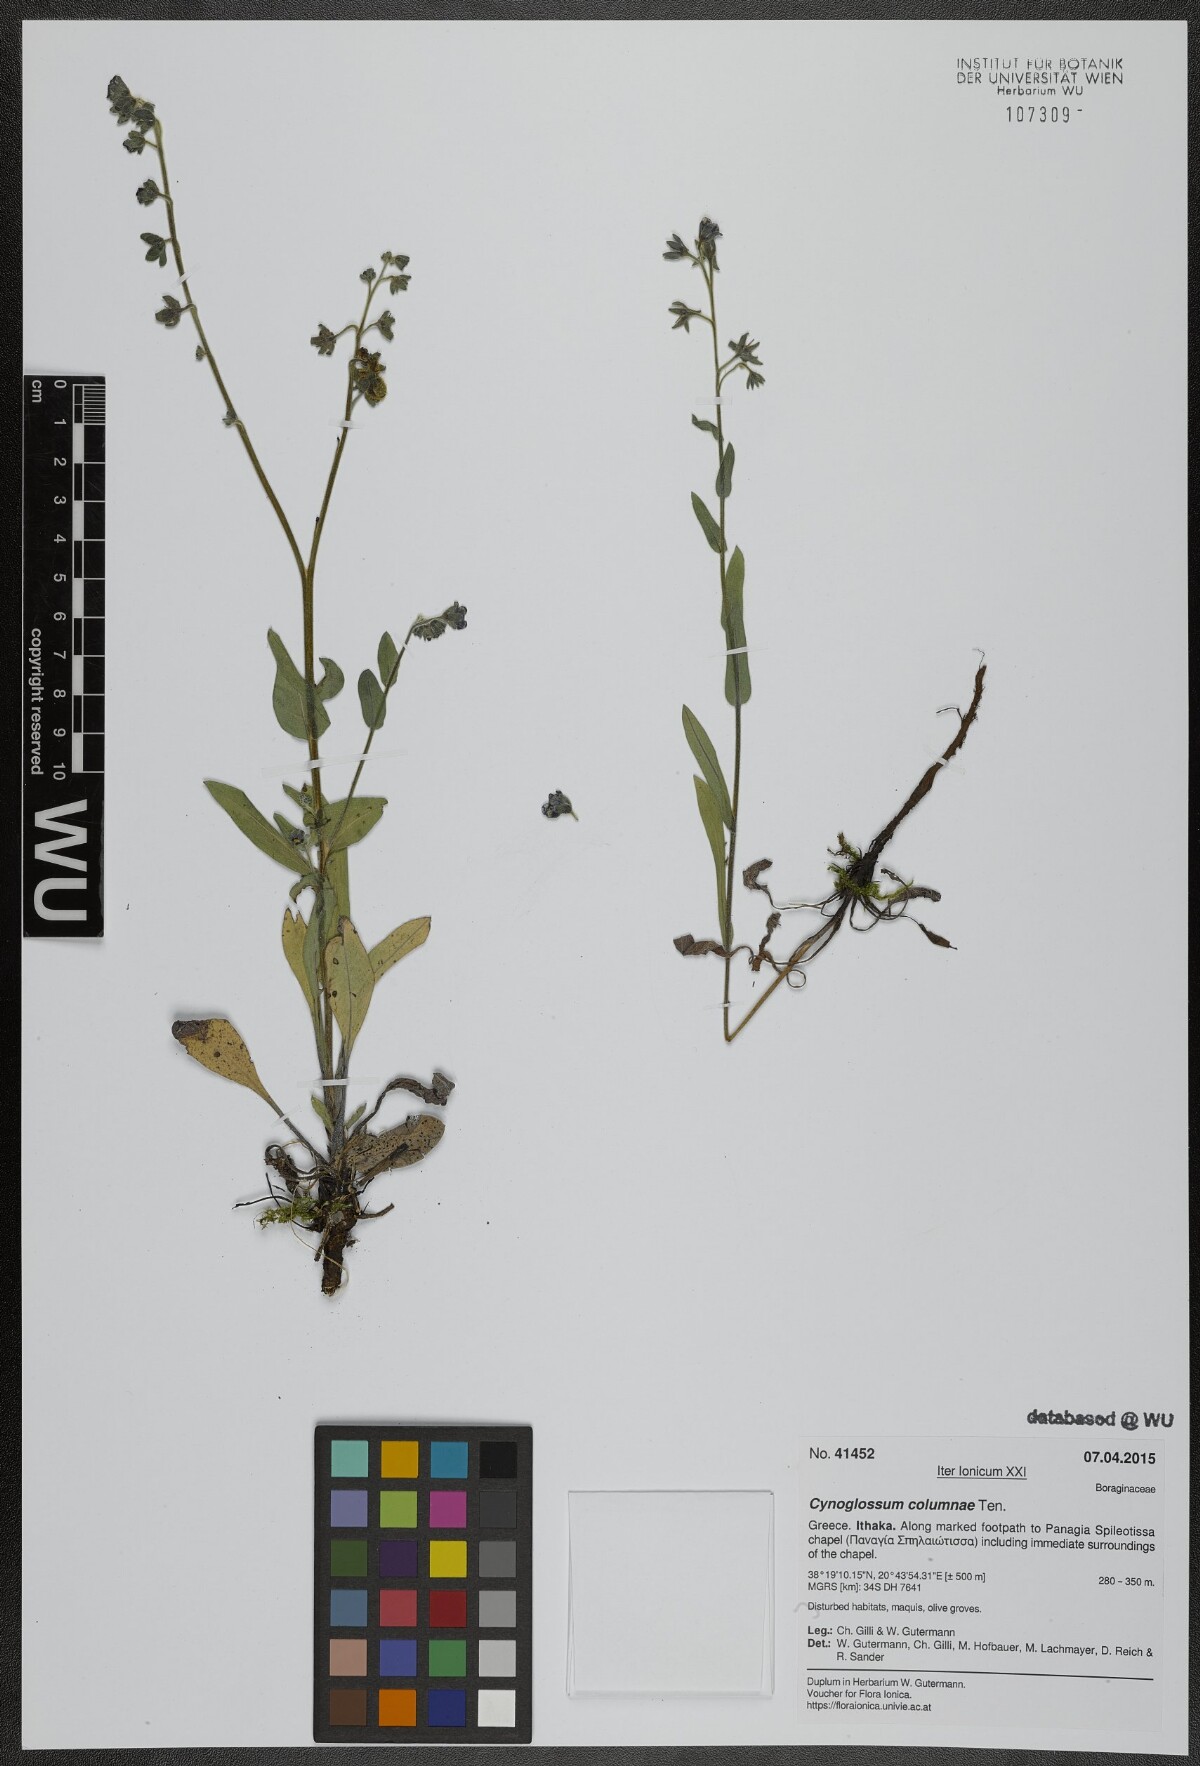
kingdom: Plantae
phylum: Tracheophyta
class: Magnoliopsida
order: Boraginales
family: Boraginaceae
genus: Rindera
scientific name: Rindera columnae
